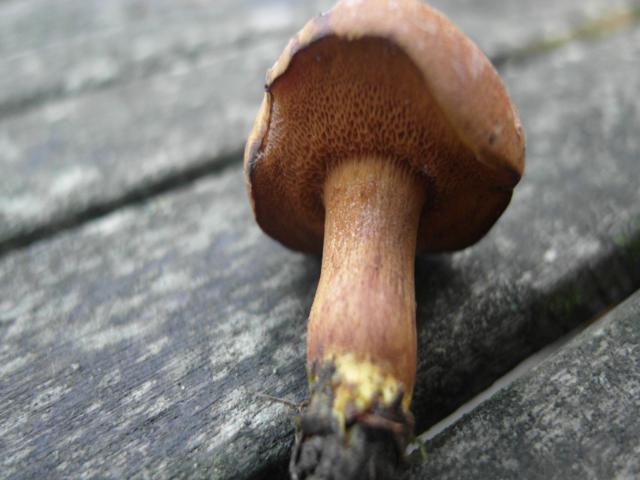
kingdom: Fungi
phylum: Basidiomycota
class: Agaricomycetes
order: Boletales
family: Boletaceae
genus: Chalciporus
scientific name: Chalciporus piperatus
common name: peberrørhat
